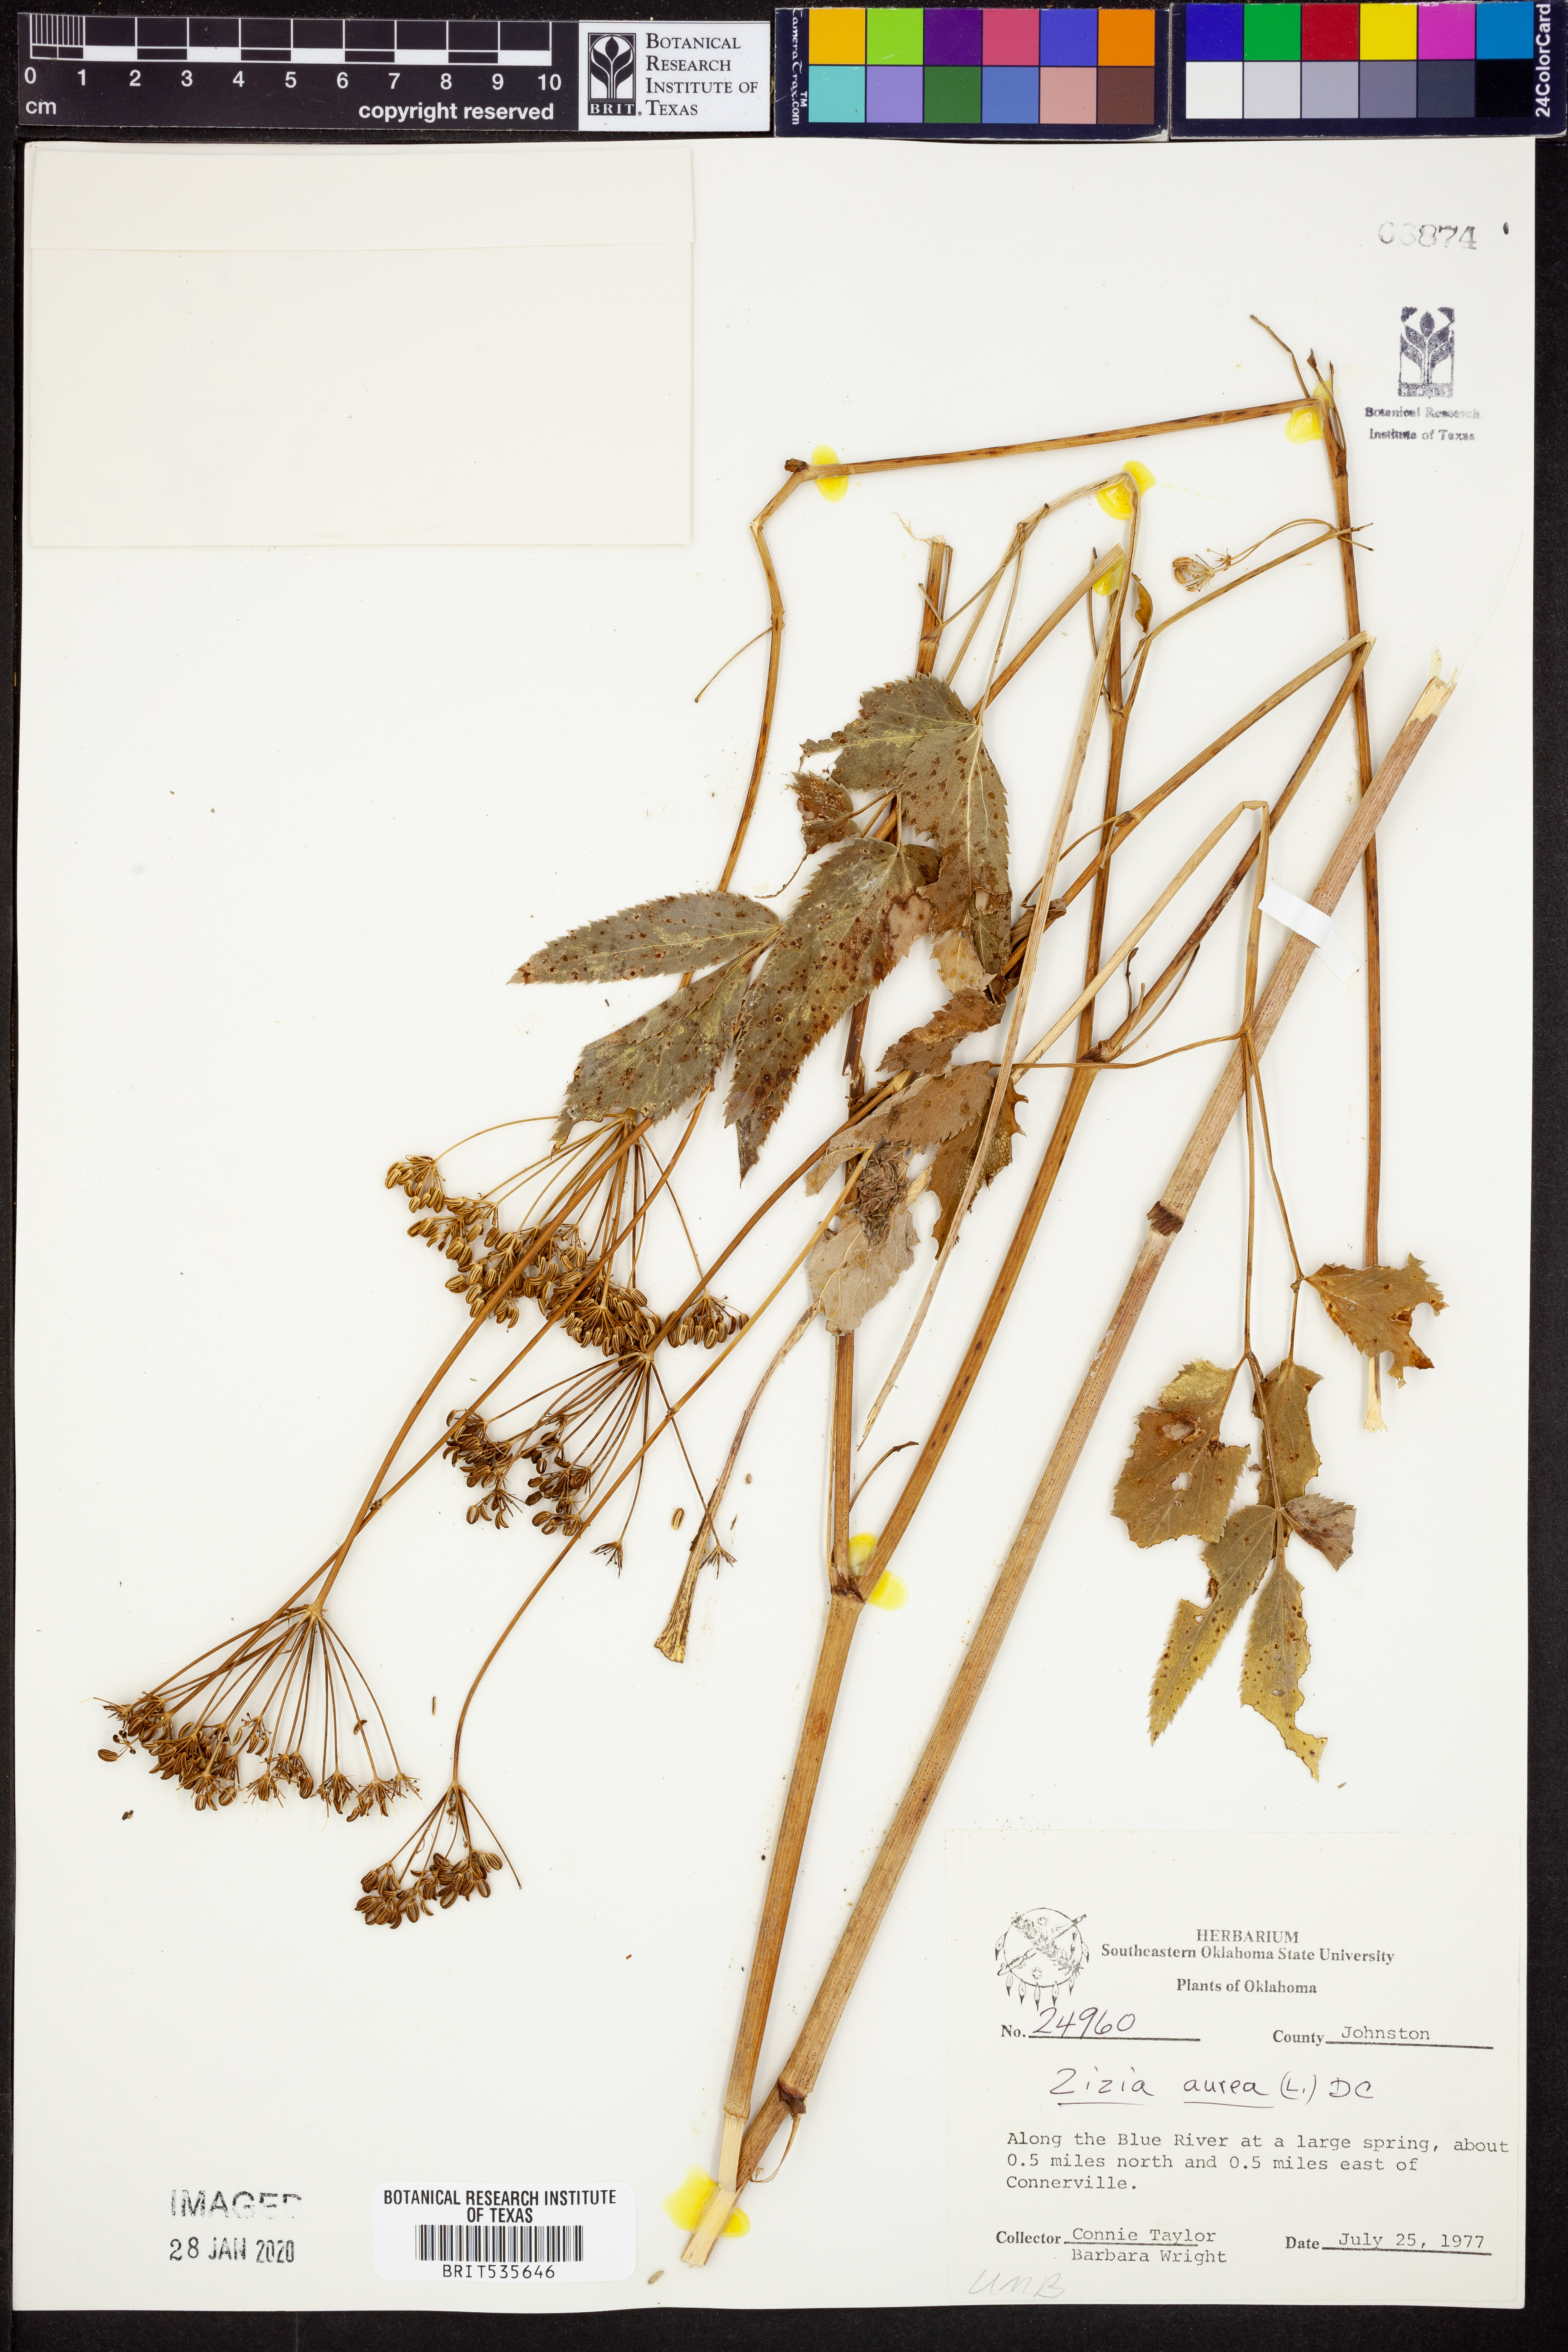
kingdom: Plantae
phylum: Tracheophyta
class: Magnoliopsida
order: Apiales
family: Apiaceae
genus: Zizia
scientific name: Zizia aurea
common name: Golden alexanders
